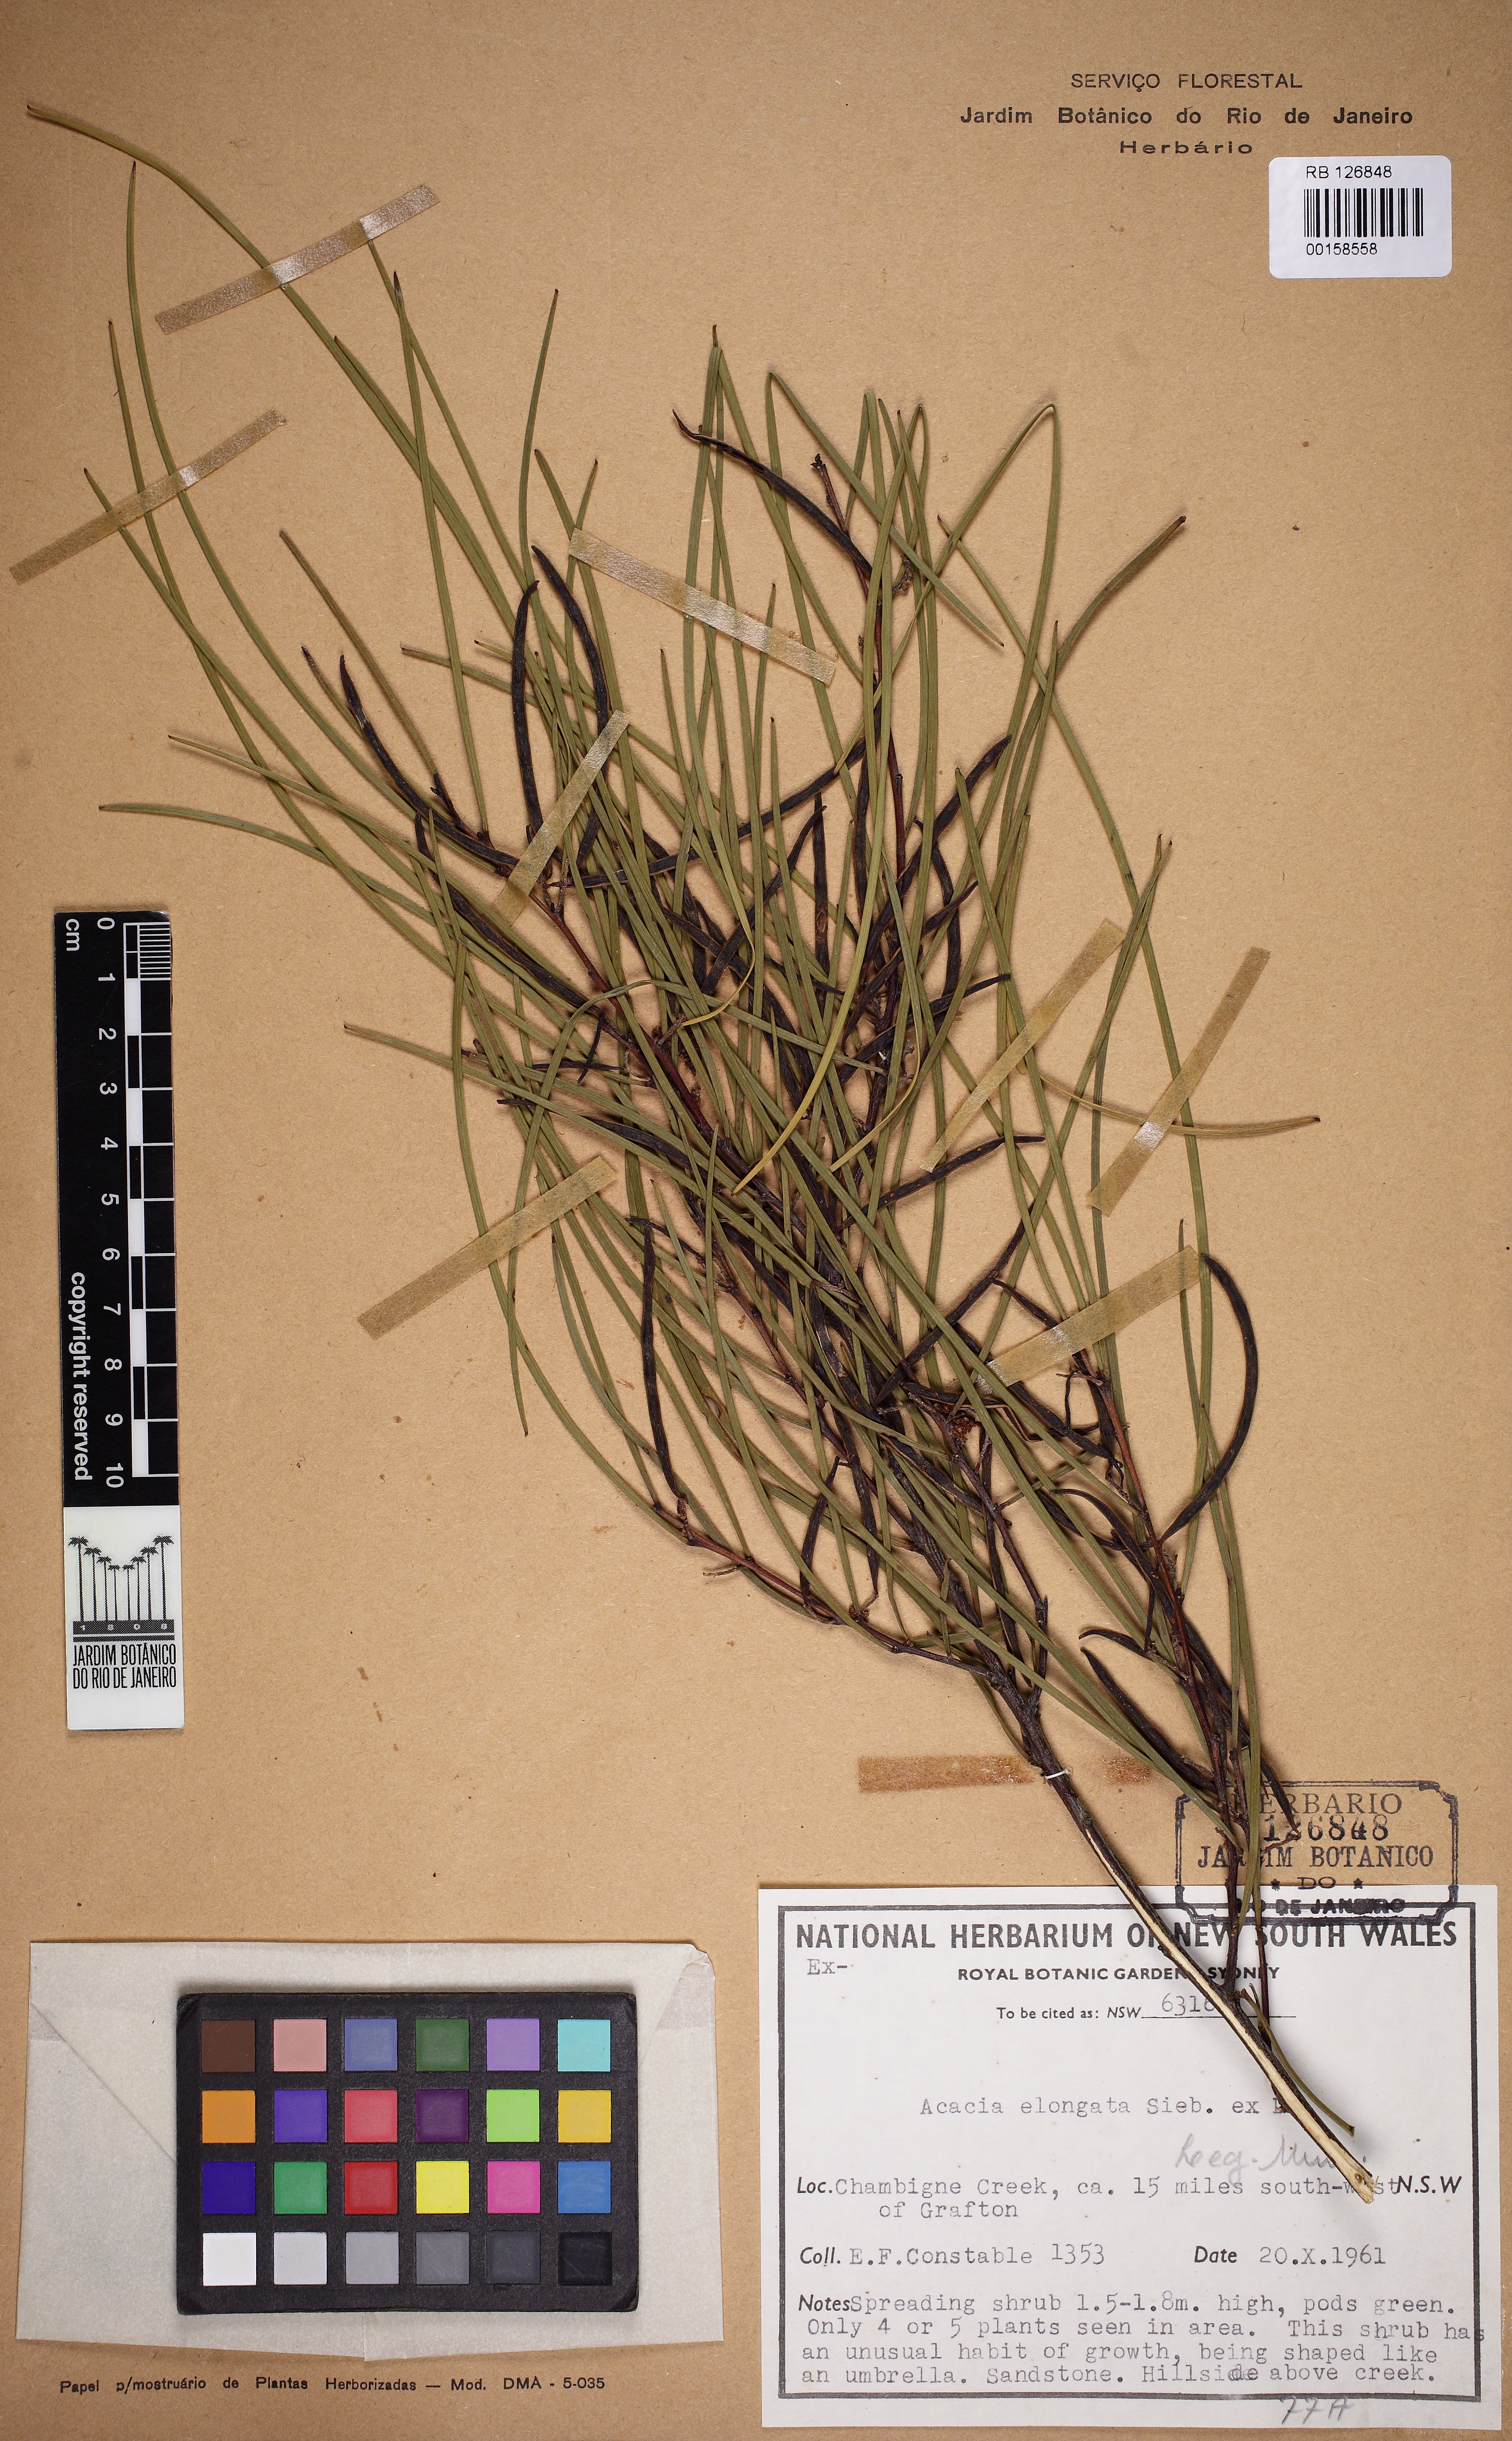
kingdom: Plantae
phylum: Tracheophyta
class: Magnoliopsida
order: Fabales
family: Fabaceae
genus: Acacia
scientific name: Acacia elongata
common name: Swamp wattle
